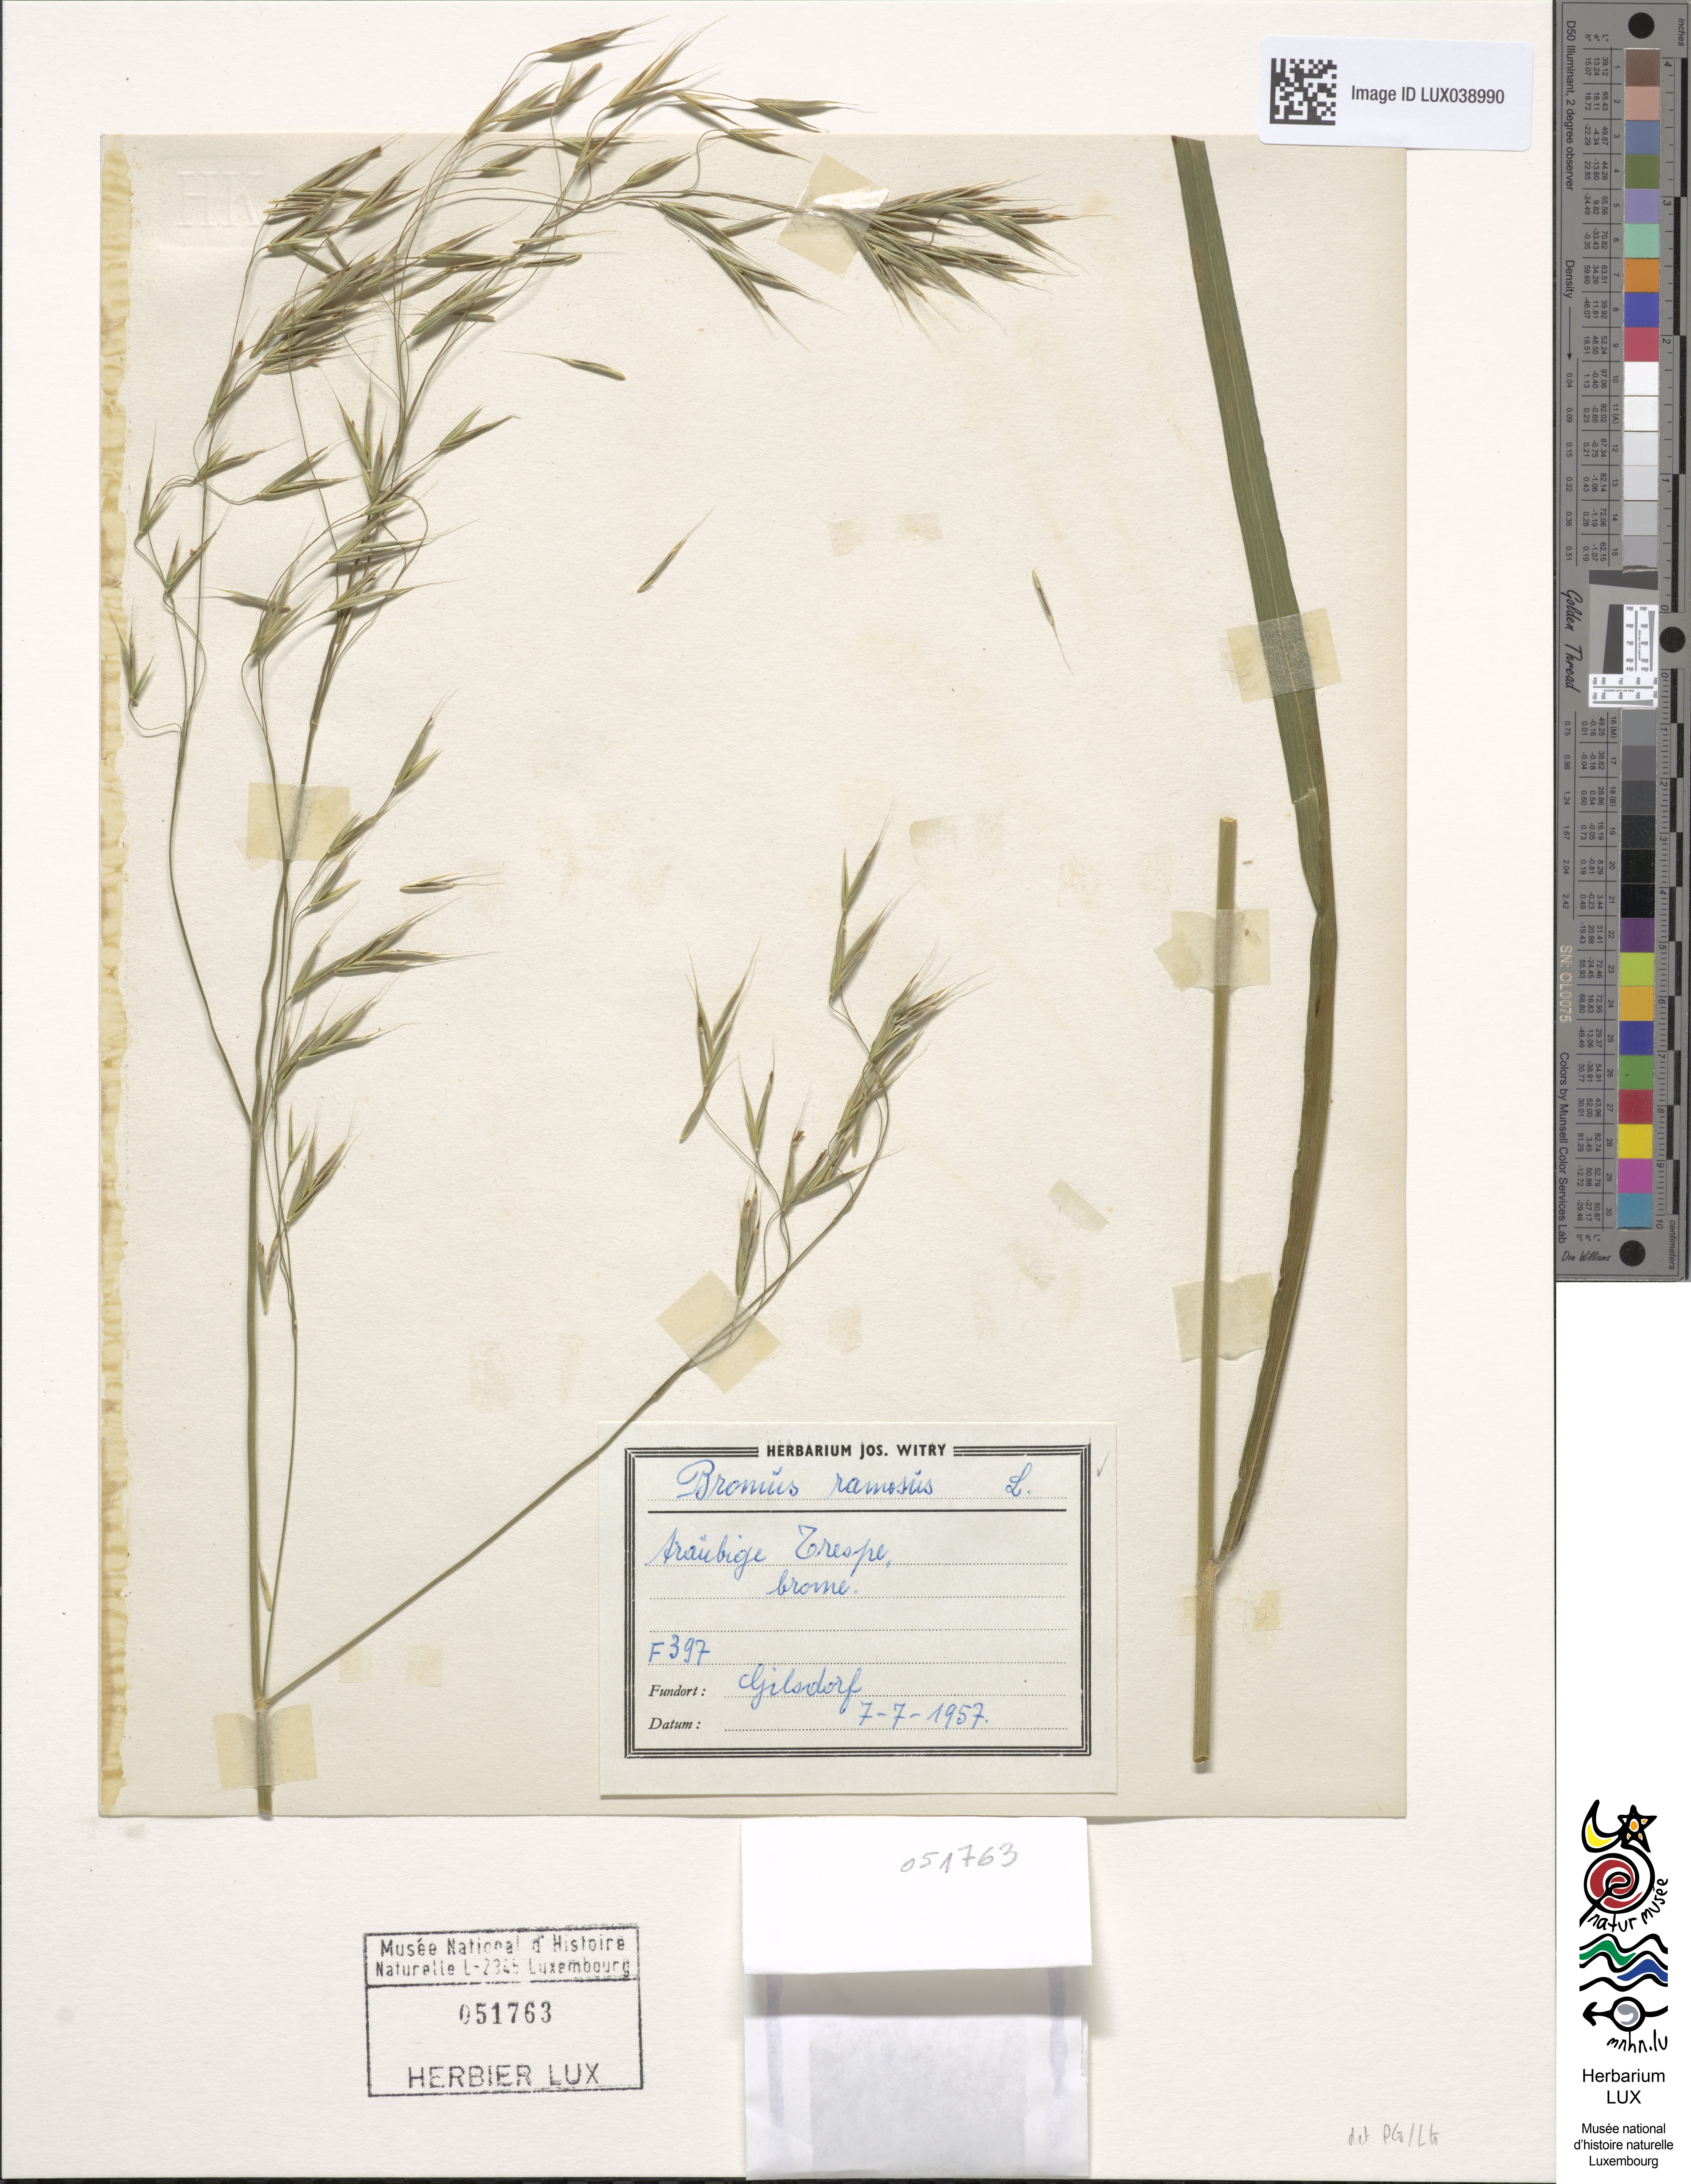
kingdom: Plantae
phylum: Tracheophyta
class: Liliopsida
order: Poales
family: Poaceae
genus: Bromus
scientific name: Bromus ramosus
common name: Hairy brome
